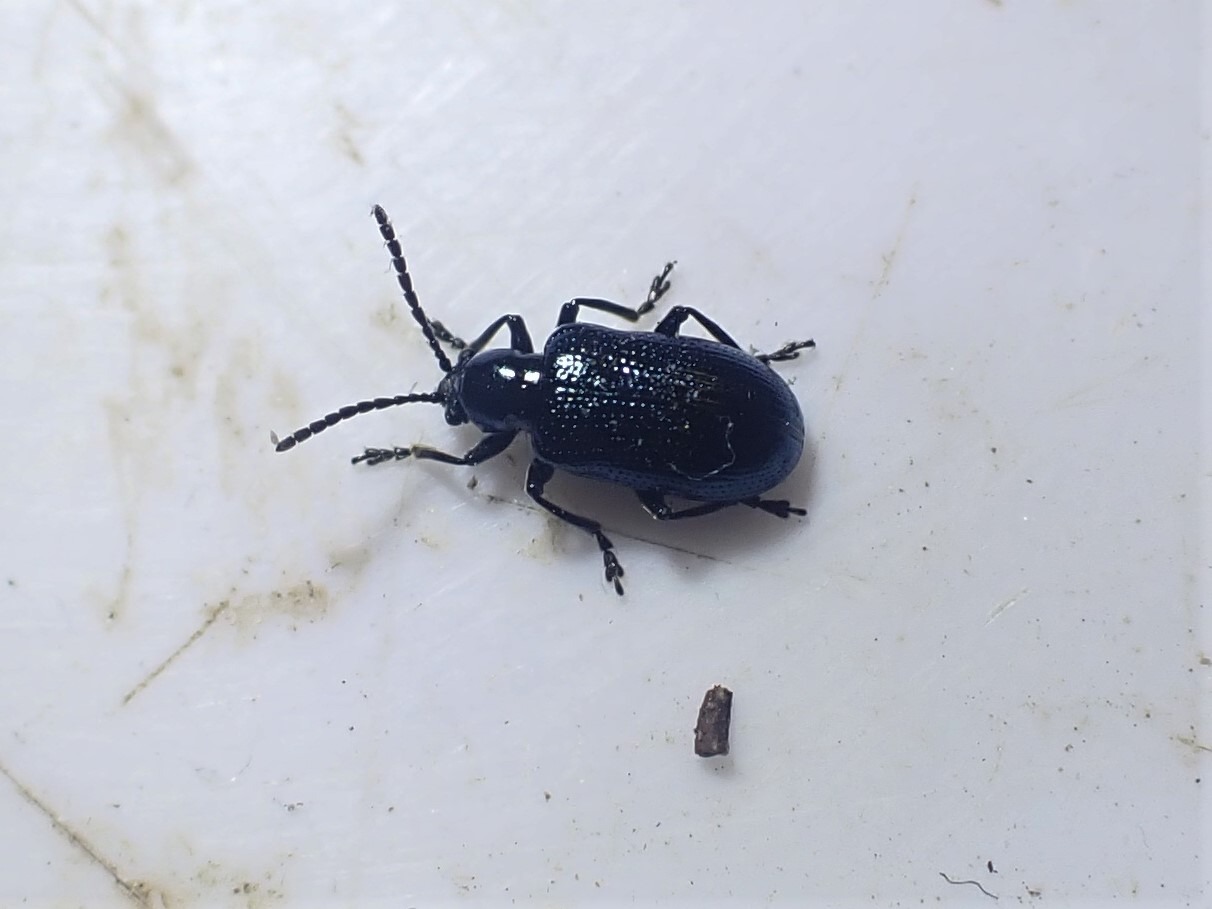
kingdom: Animalia
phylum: Arthropoda
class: Insecta
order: Coleoptera
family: Chrysomelidae
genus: Oulema
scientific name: Oulema gallaeciana
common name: Sortblå kornbladbille
